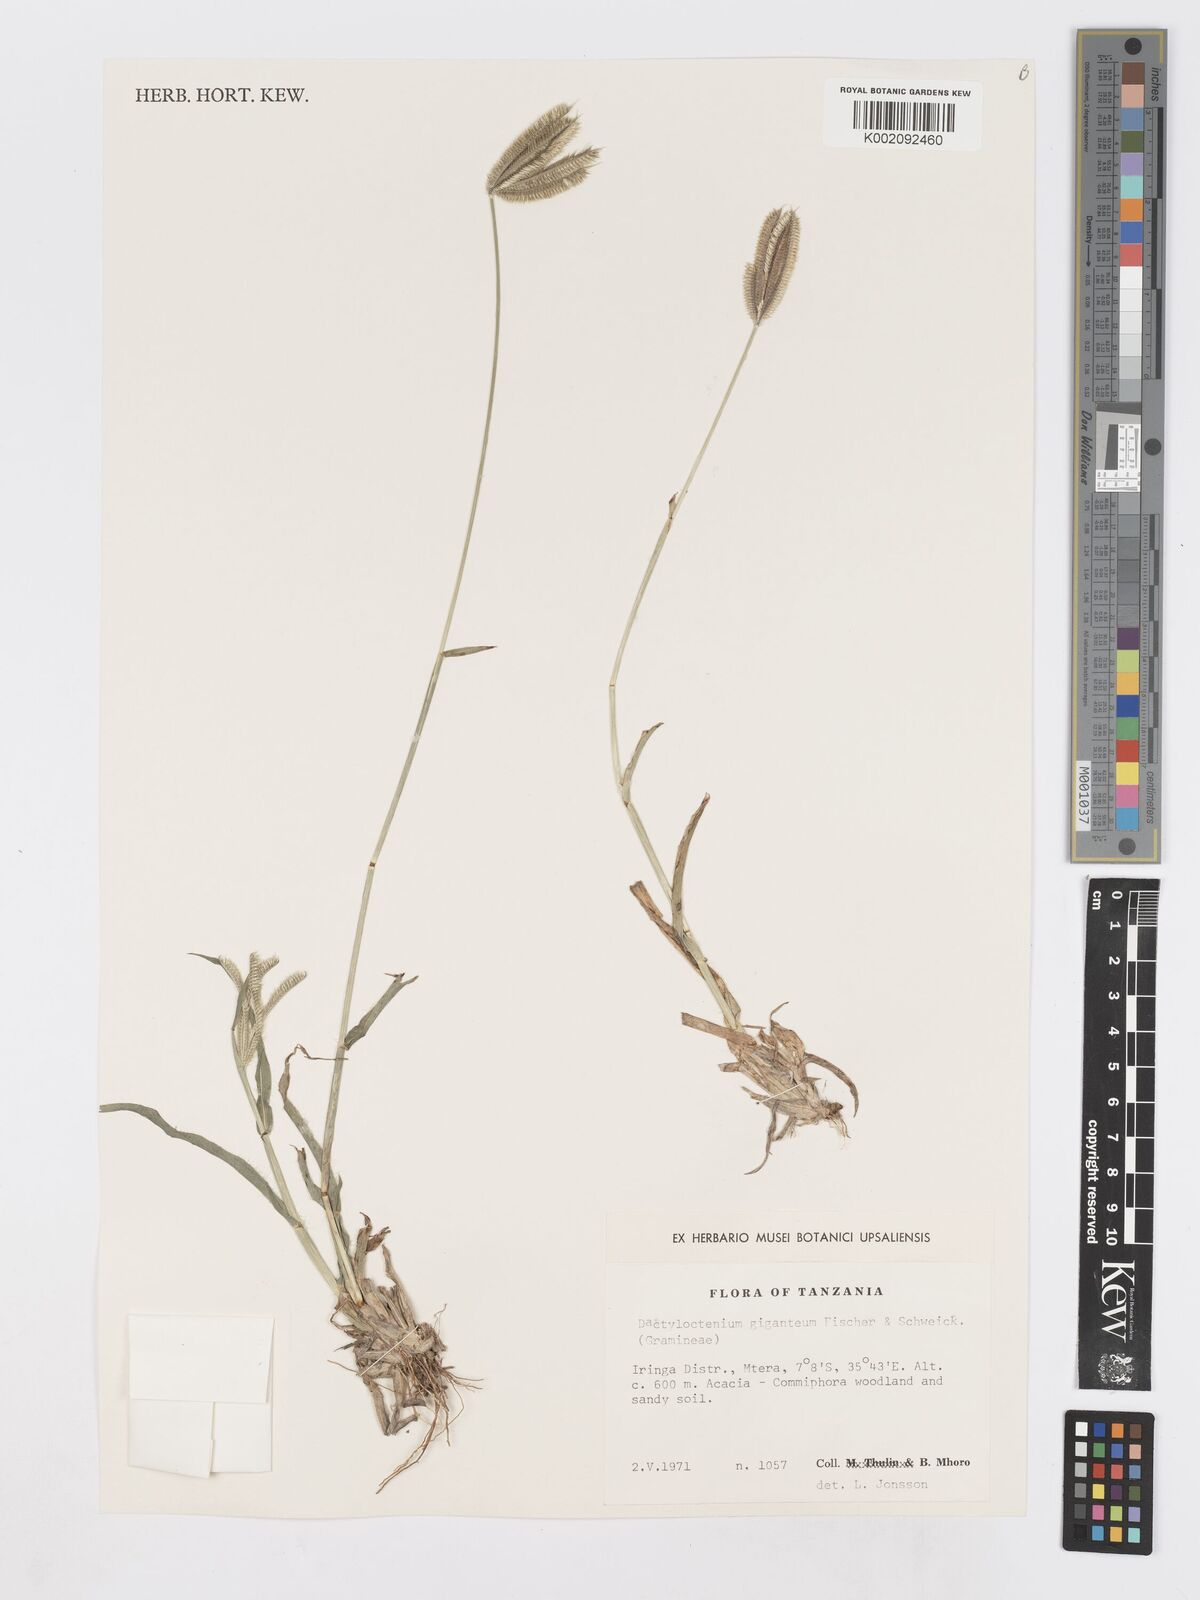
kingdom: Plantae
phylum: Tracheophyta
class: Liliopsida
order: Poales
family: Poaceae
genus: Dactyloctenium
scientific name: Dactyloctenium giganteum
